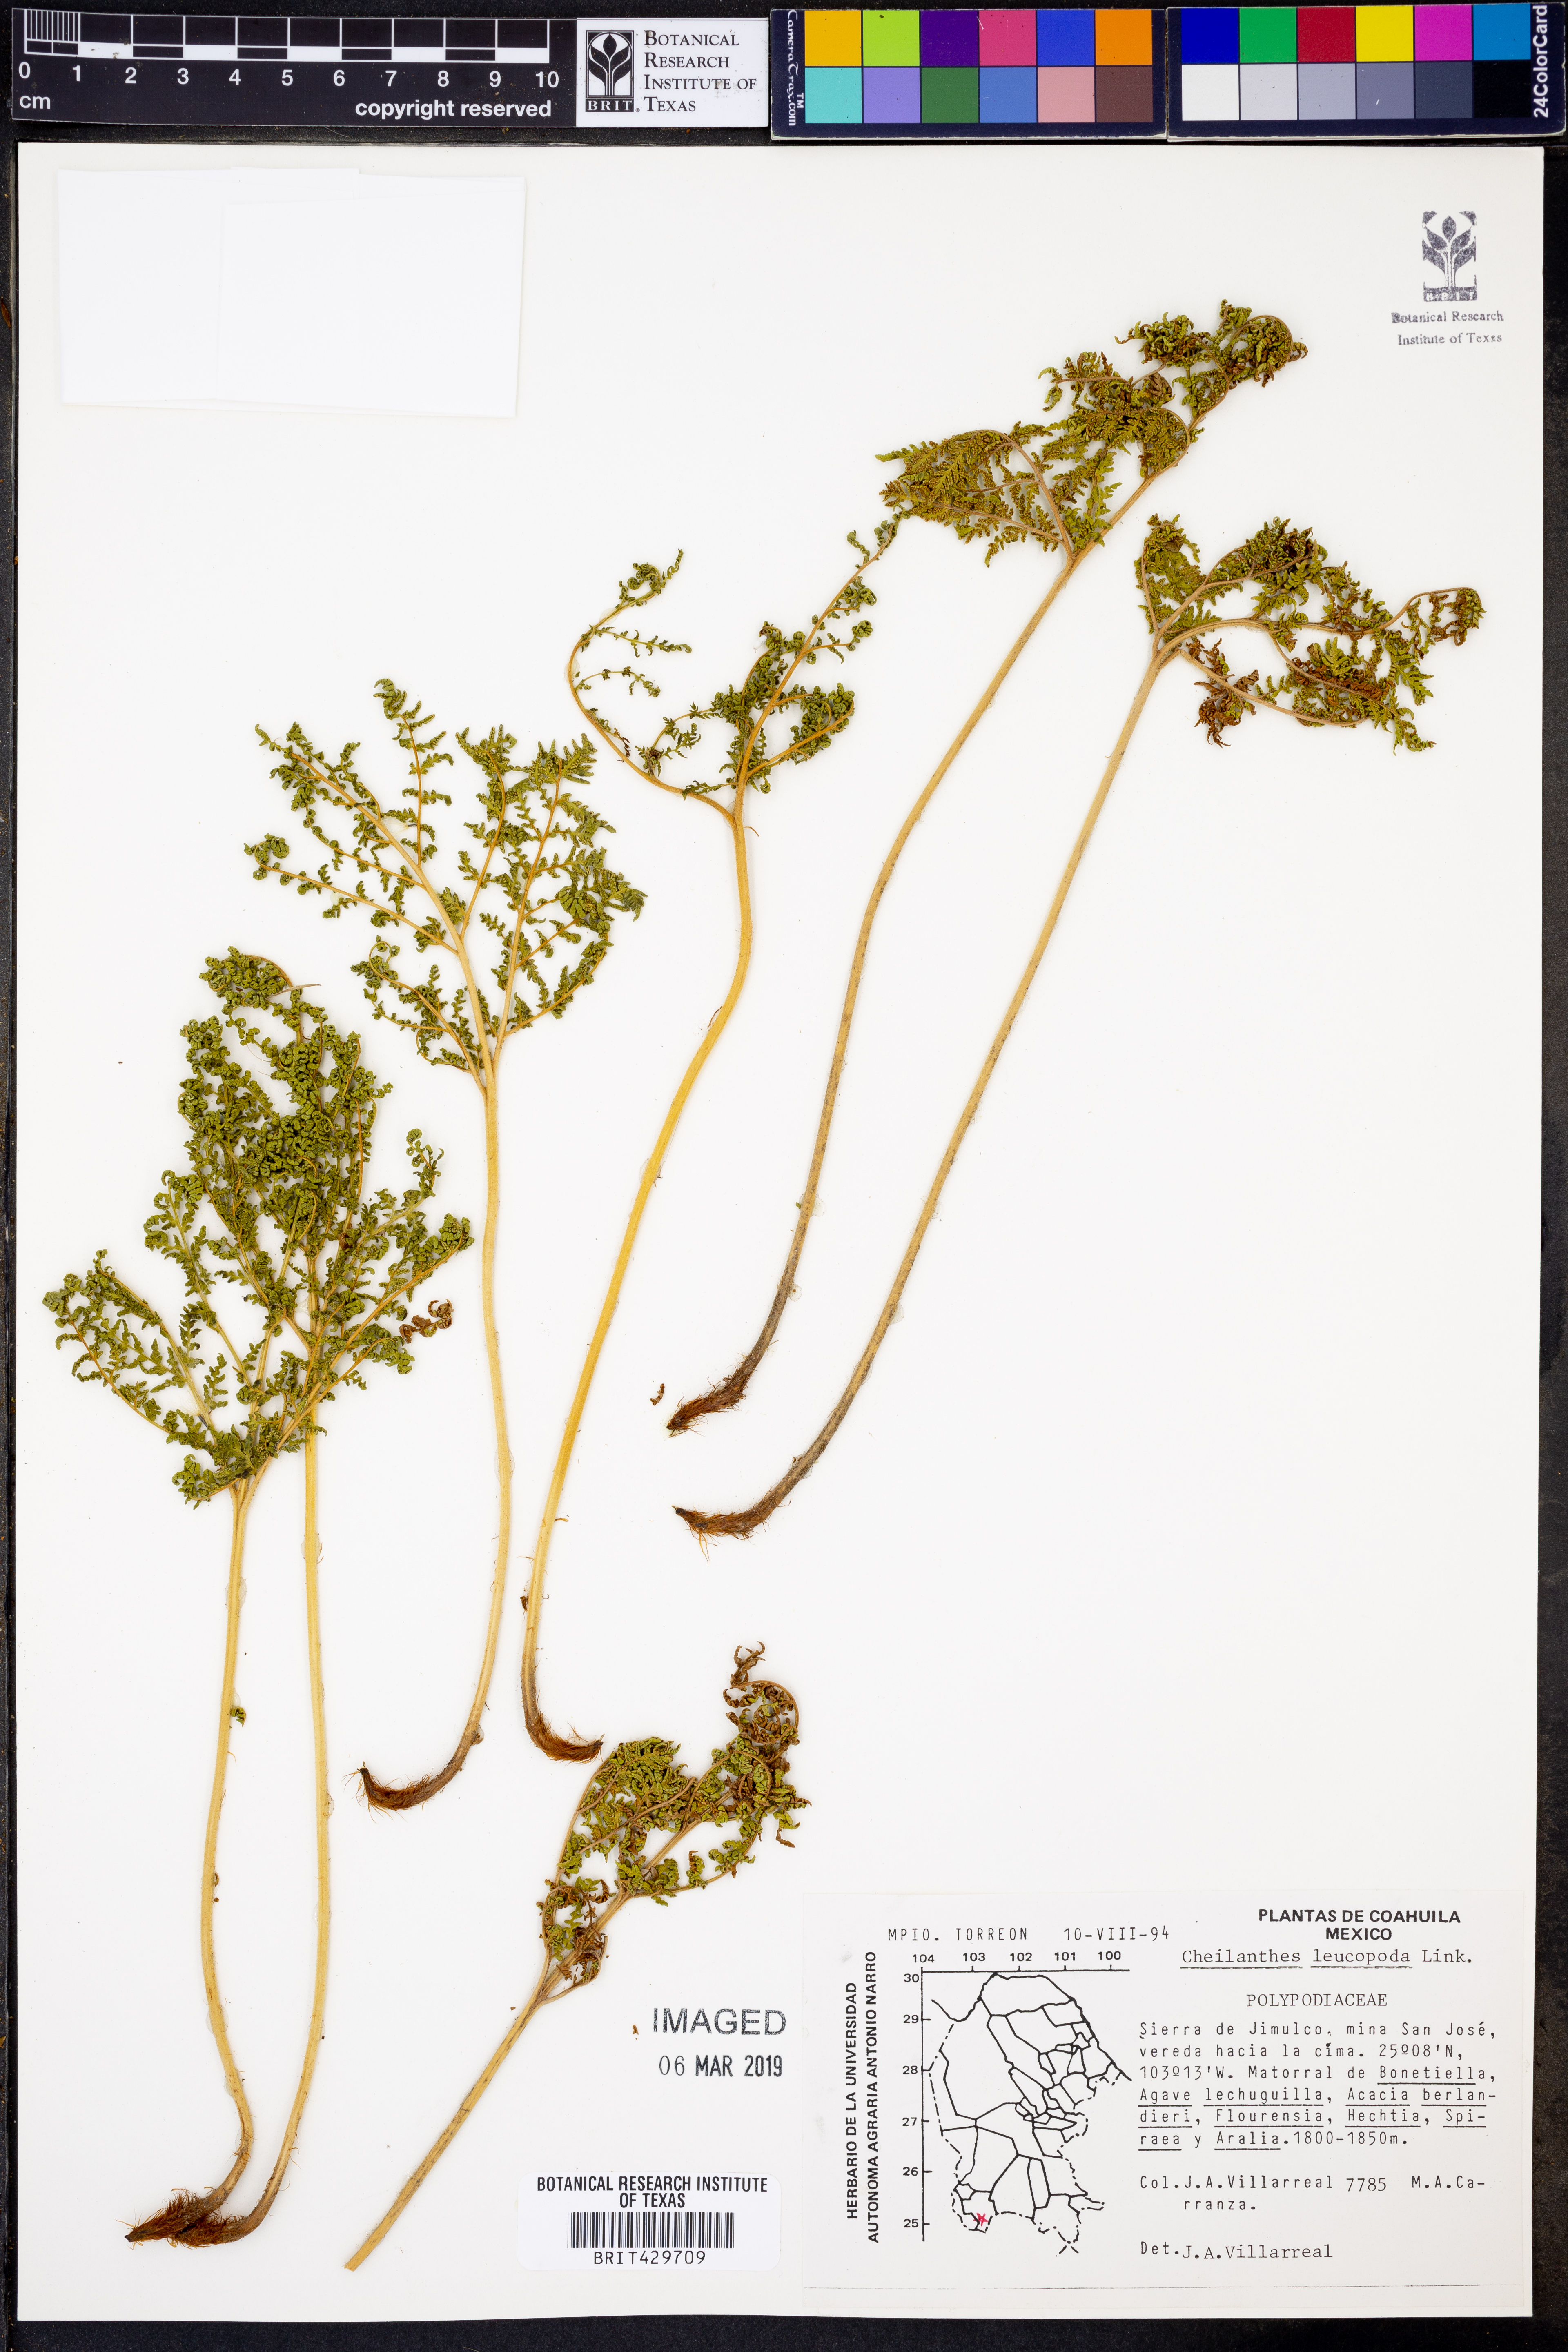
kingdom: Plantae
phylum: Tracheophyta
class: Polypodiopsida
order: Polypodiales
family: Pteridaceae
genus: Cheilanthes
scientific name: Cheilanthes leucopoda
